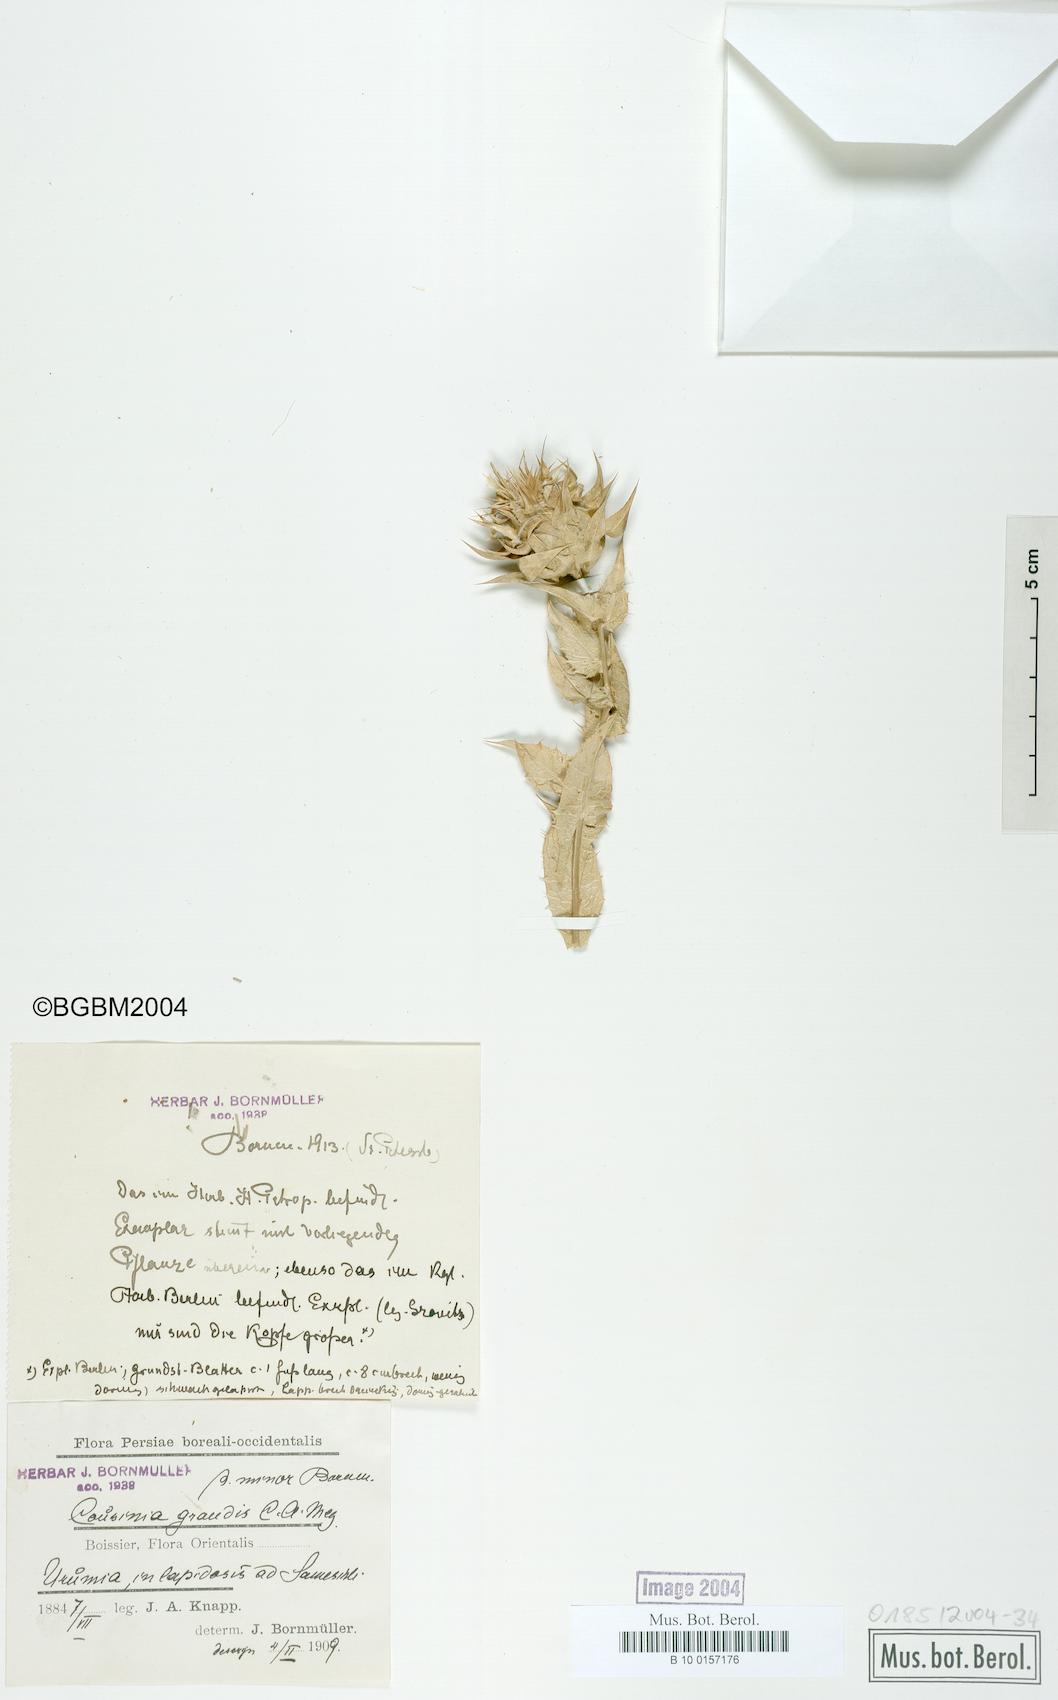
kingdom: Plantae
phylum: Tracheophyta
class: Magnoliopsida
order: Asterales
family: Asteraceae
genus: Cousinia
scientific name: Cousinia grandis
